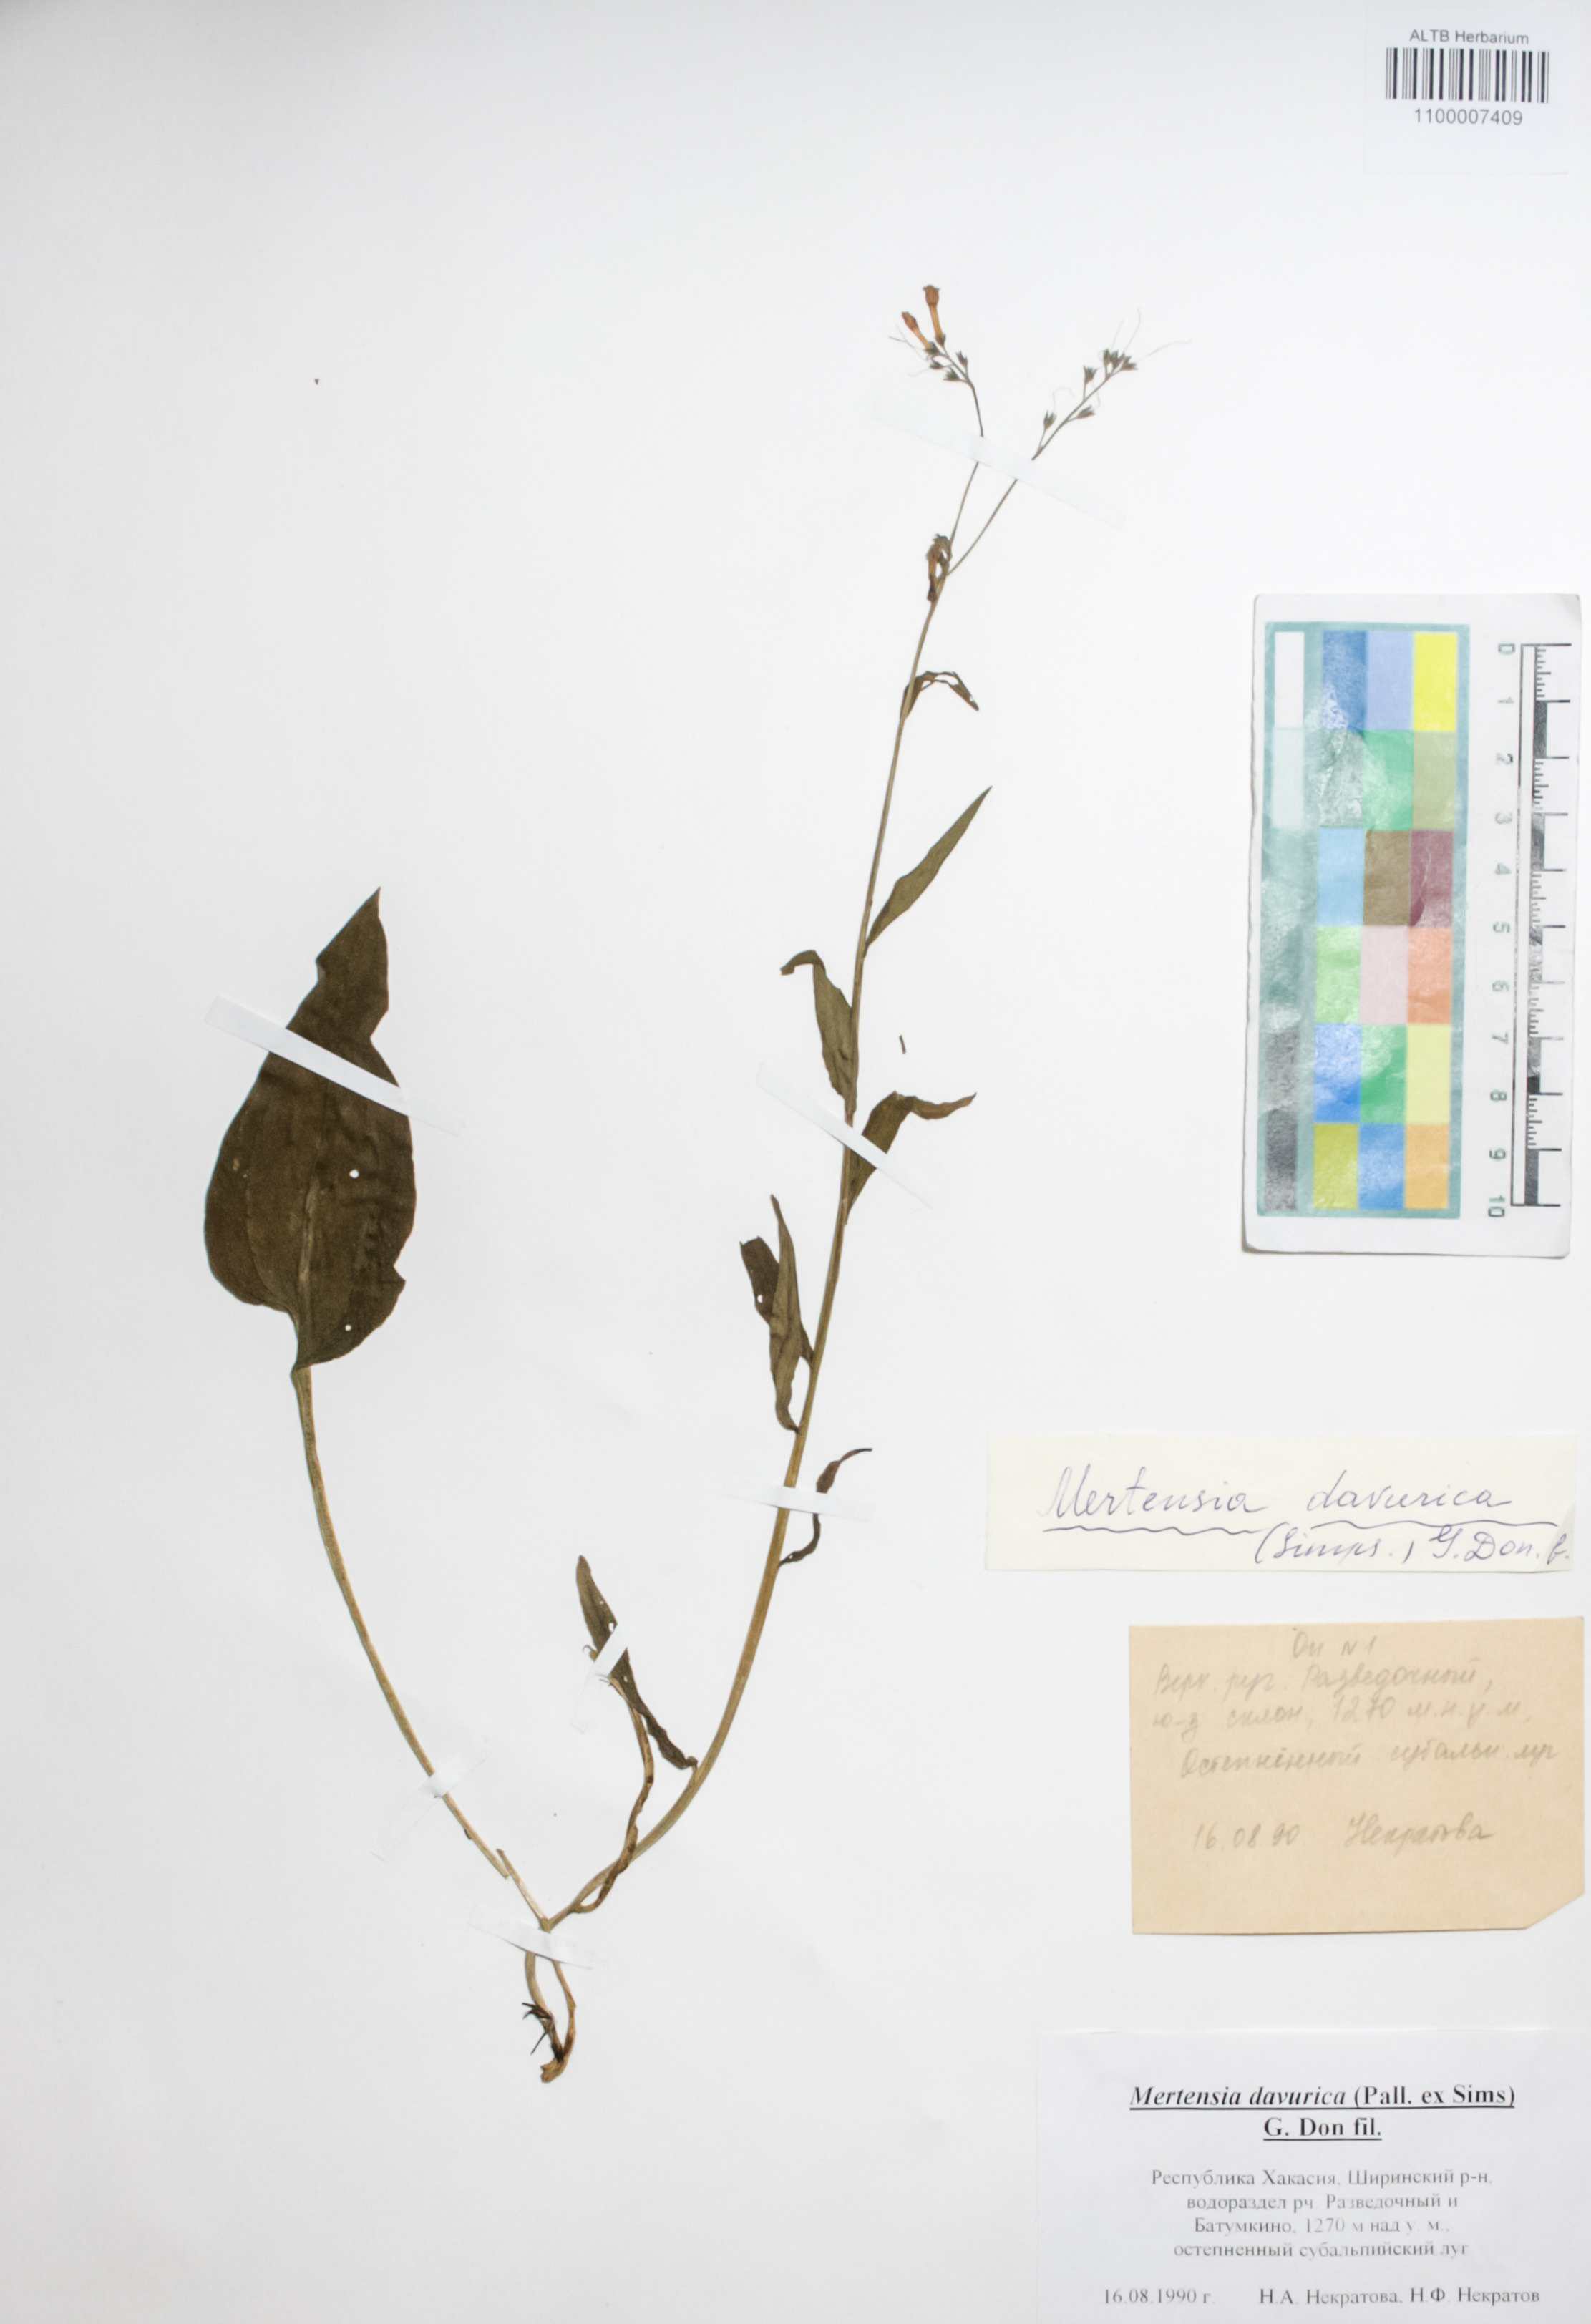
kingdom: Plantae
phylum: Tracheophyta
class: Magnoliopsida
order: Boraginales
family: Boraginaceae
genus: Mertensia
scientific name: Mertensia davurica
